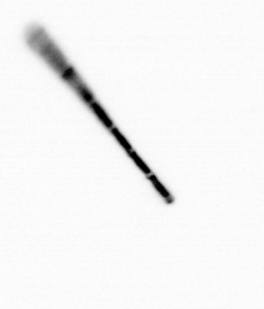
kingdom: Chromista
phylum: Ochrophyta
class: Bacillariophyceae
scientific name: Bacillariophyceae
